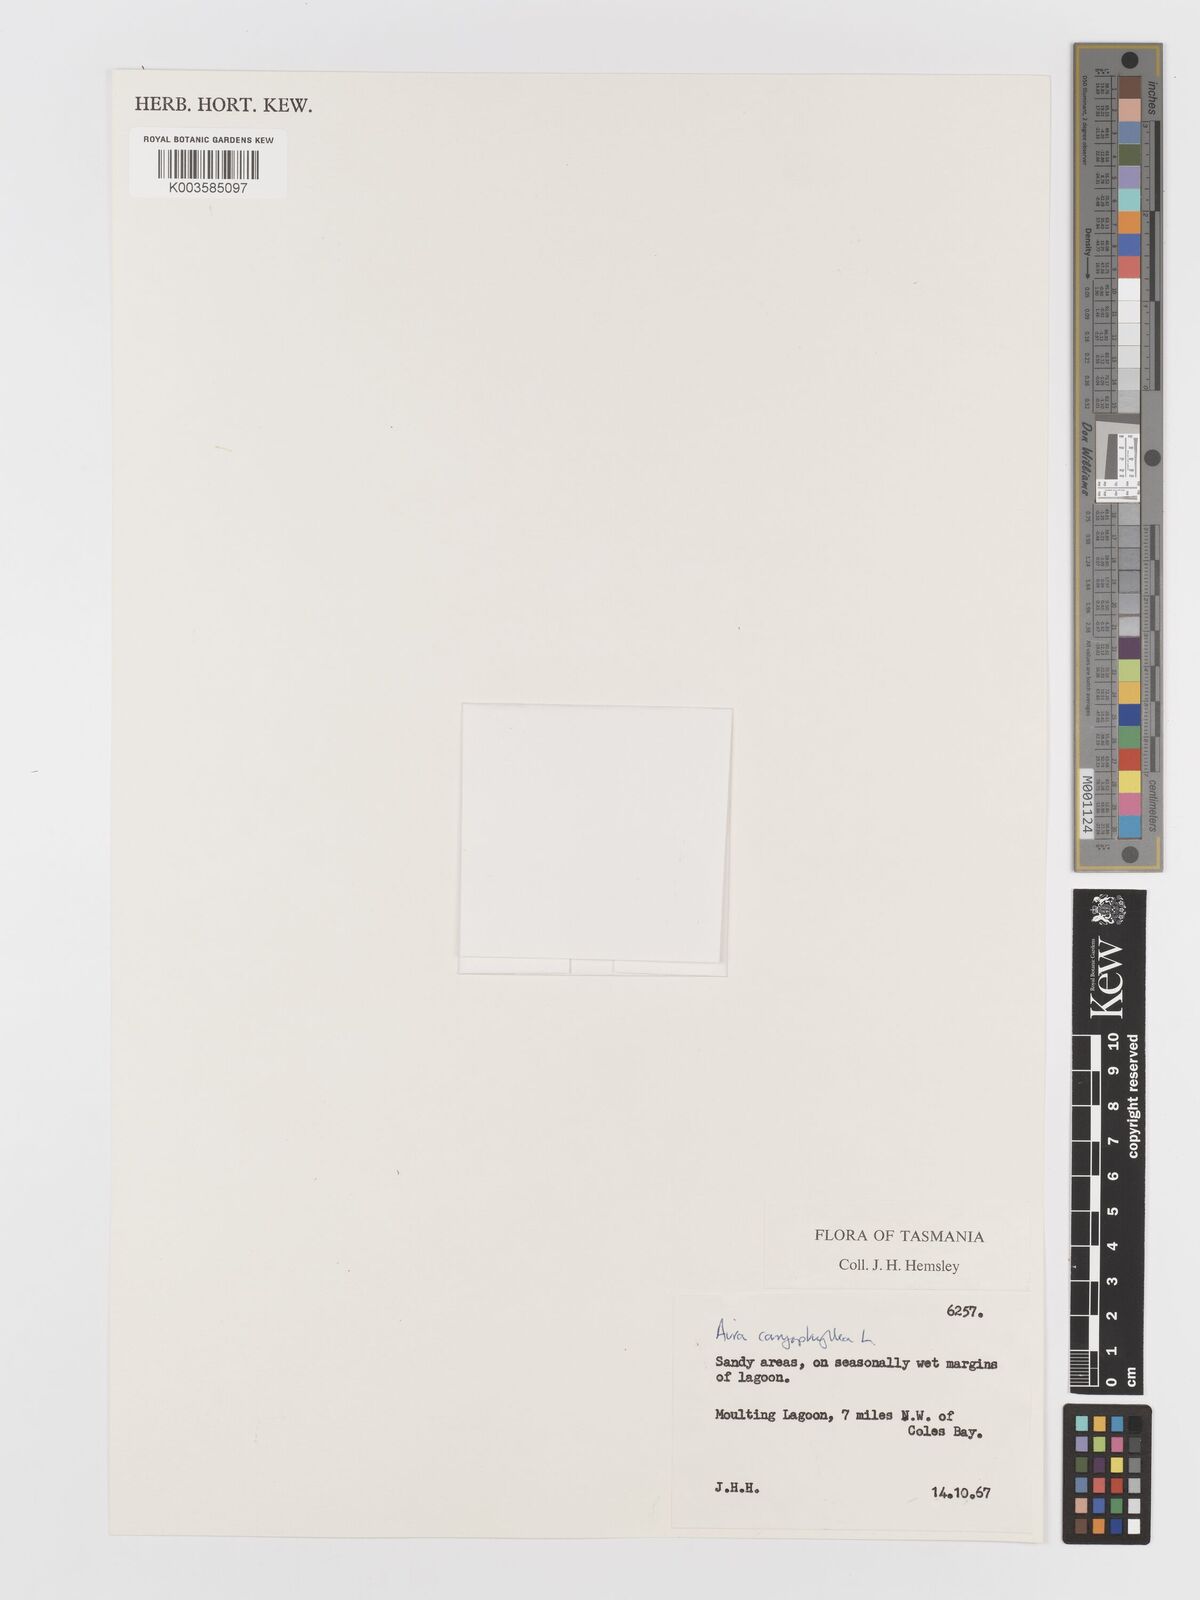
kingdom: Plantae
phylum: Tracheophyta
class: Liliopsida
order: Poales
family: Poaceae
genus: Aira
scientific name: Aira caryophyllea
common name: Silver hairgrass
